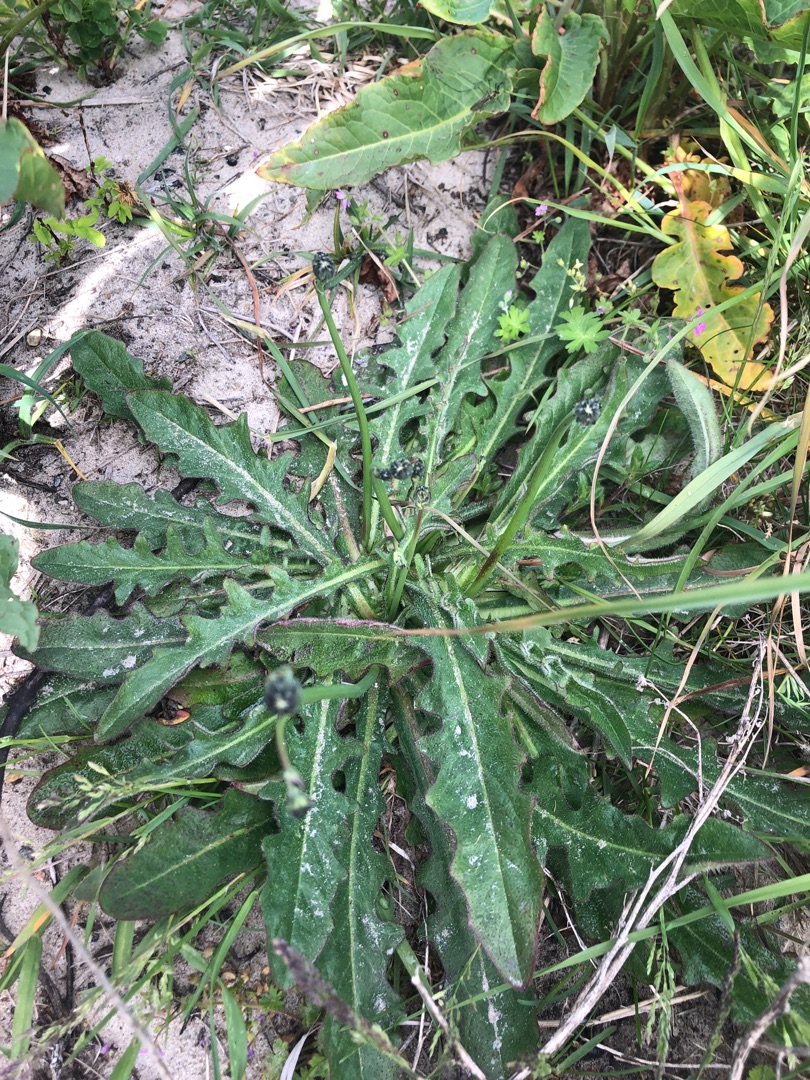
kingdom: Plantae
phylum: Tracheophyta
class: Magnoliopsida
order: Asterales
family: Asteraceae
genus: Hypochaeris
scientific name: Hypochaeris radicata
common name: Almindelig kongepen
